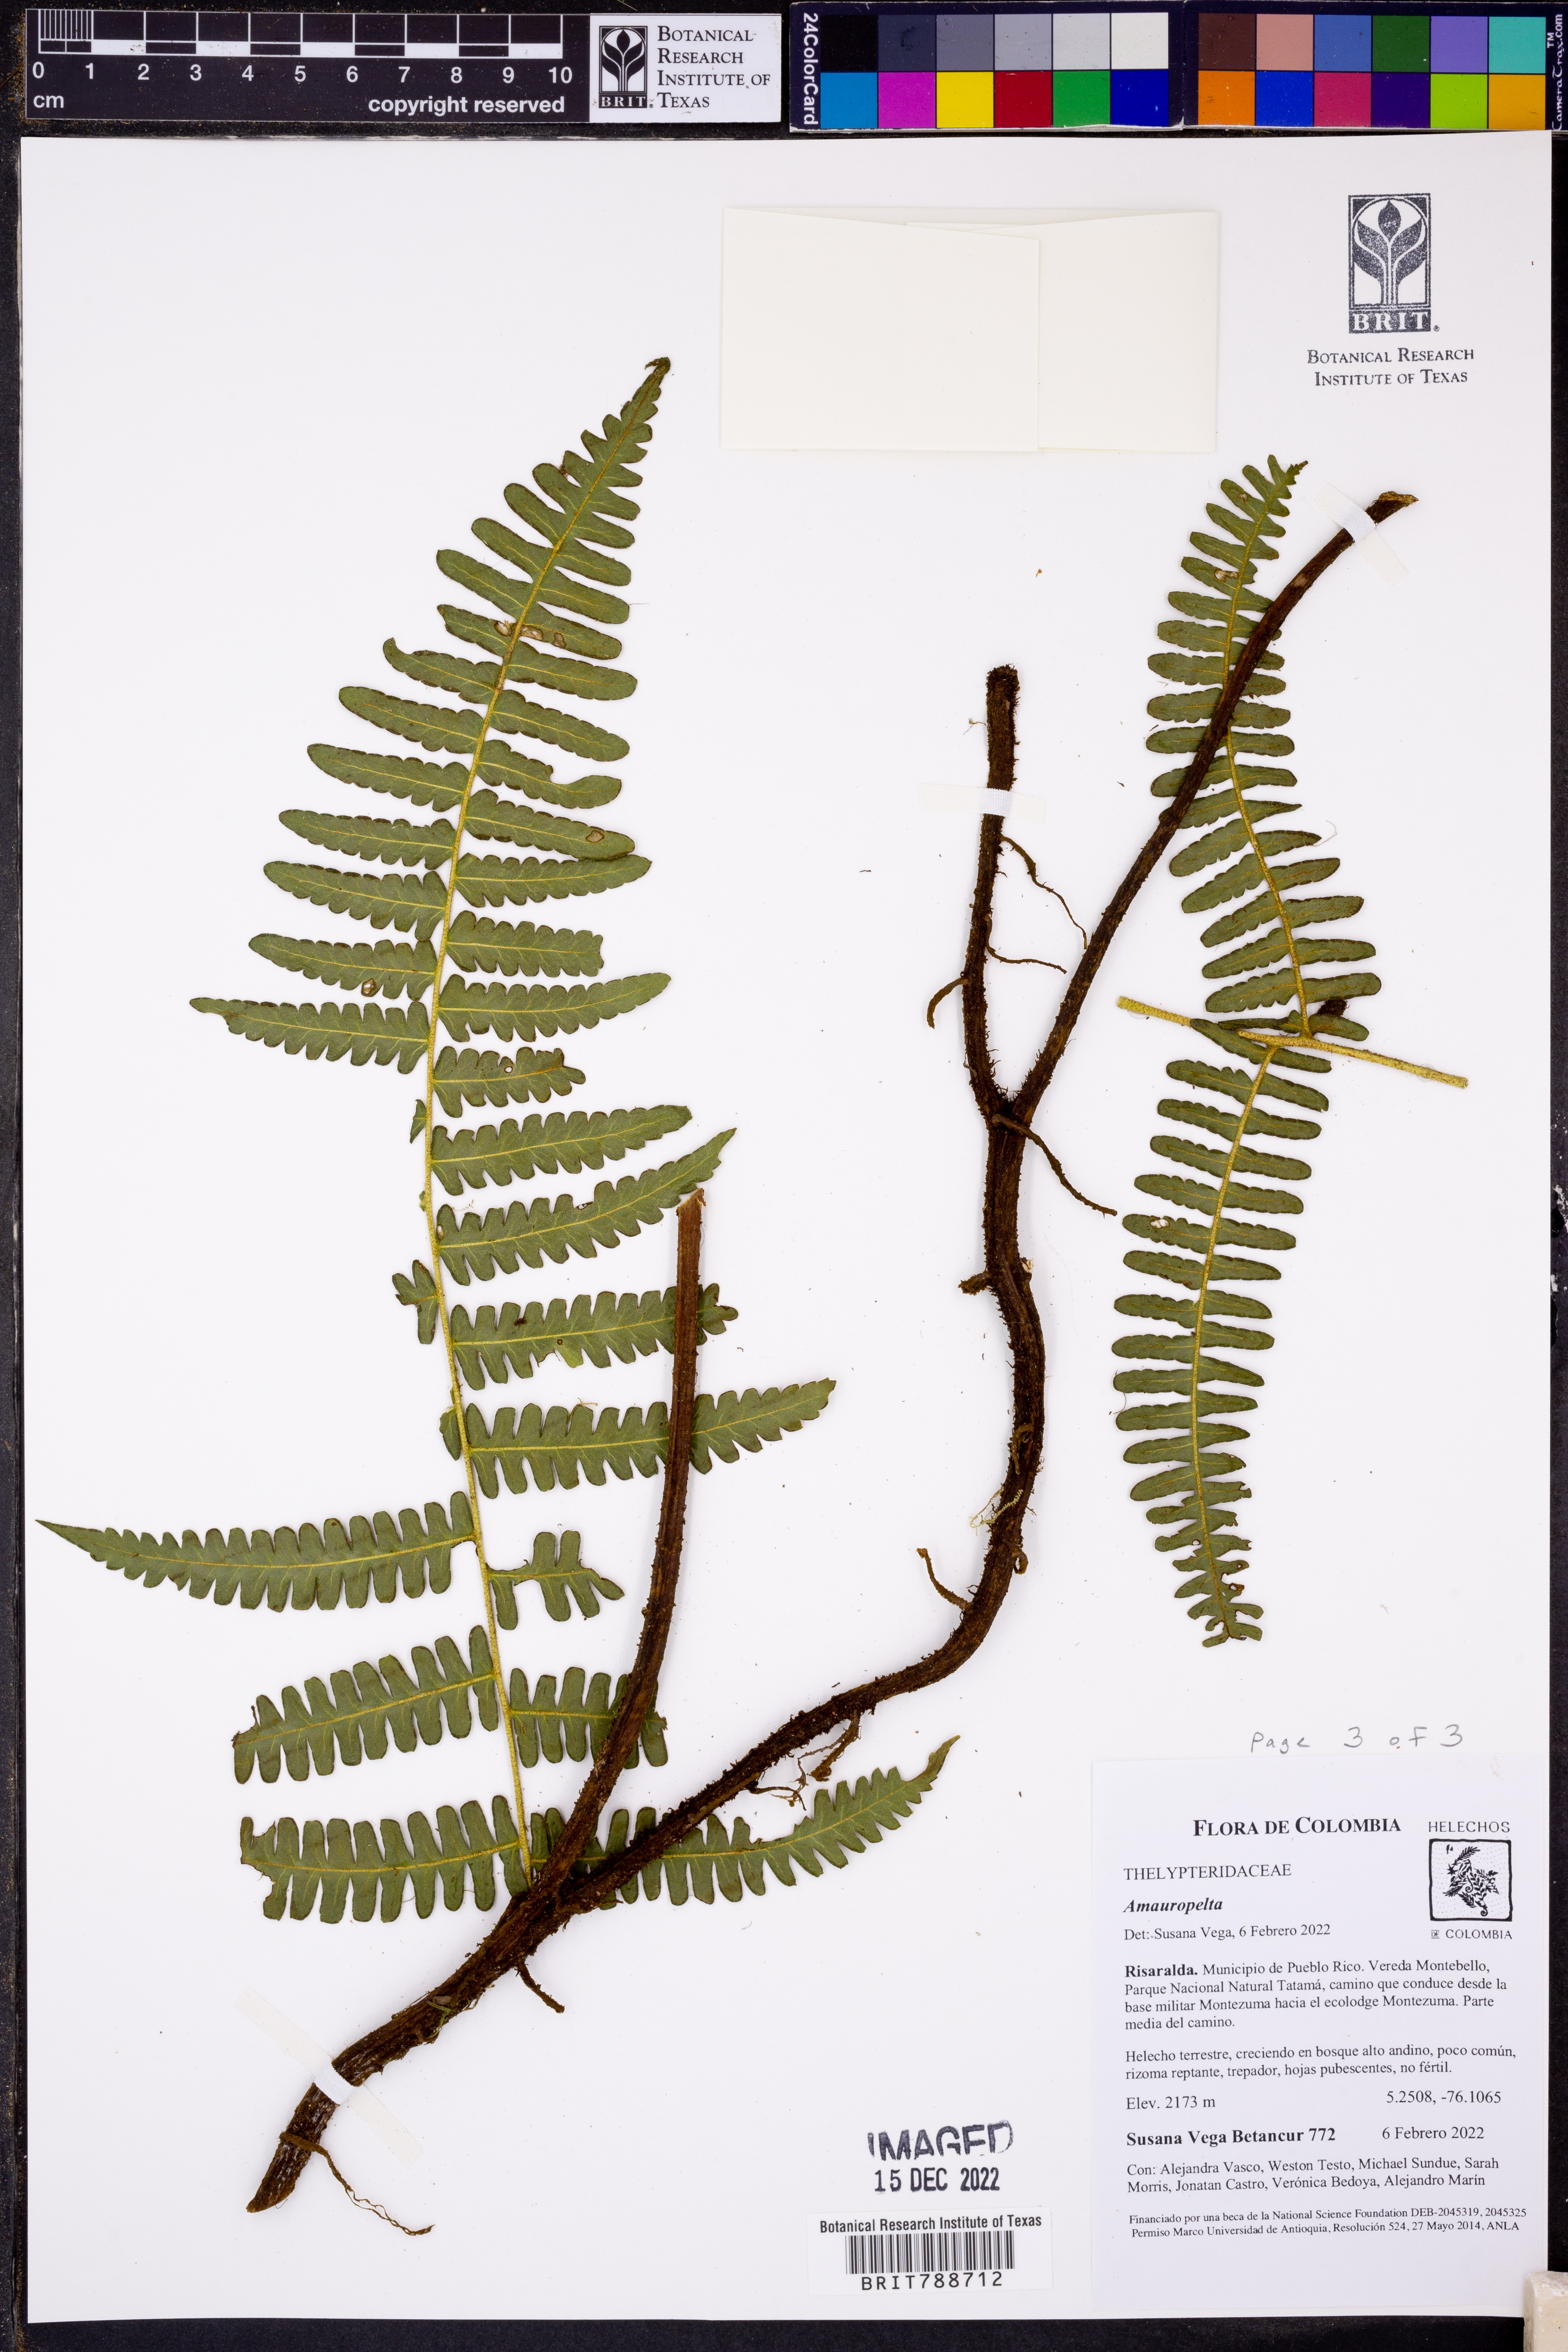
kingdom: Plantae
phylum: Tracheophyta
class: Polypodiopsida
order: Polypodiales
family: Thelypteridaceae
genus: Amauropelta
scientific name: Amauropelta
